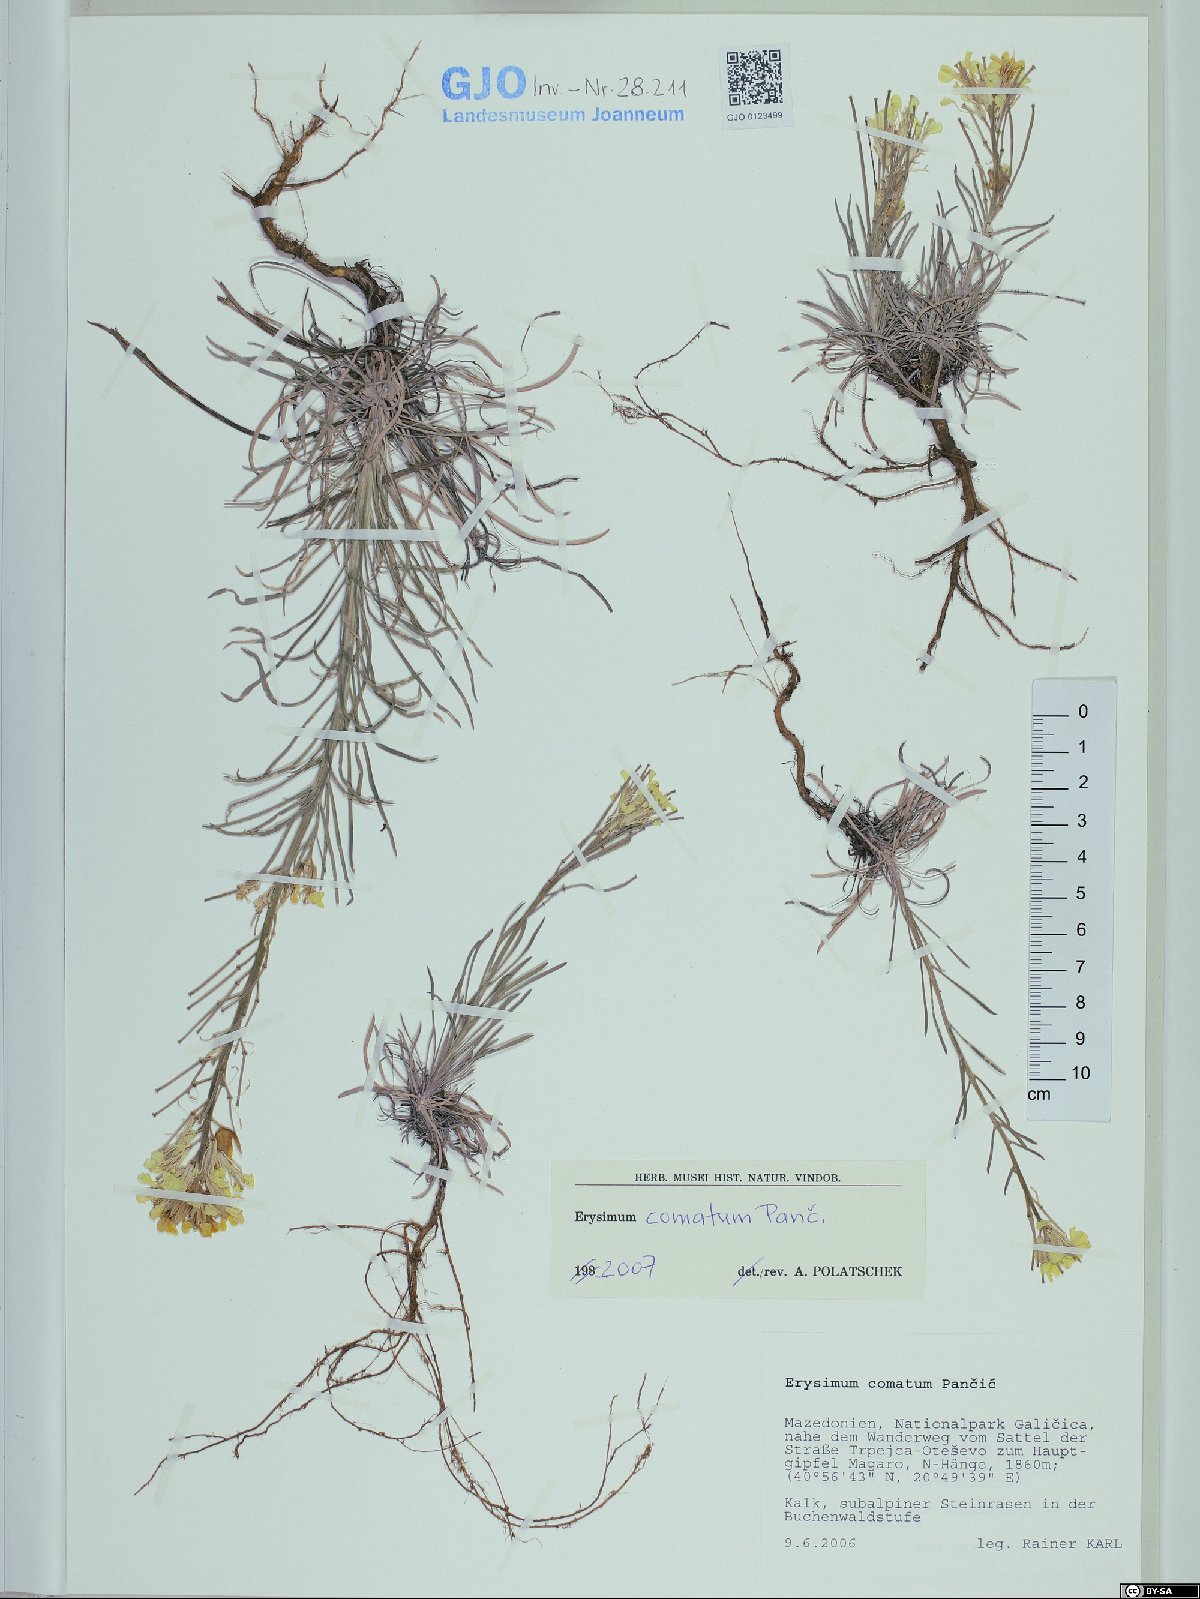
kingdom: Plantae
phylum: Tracheophyta
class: Magnoliopsida
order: Brassicales
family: Brassicaceae
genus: Erysimum
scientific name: Erysimum comatum
